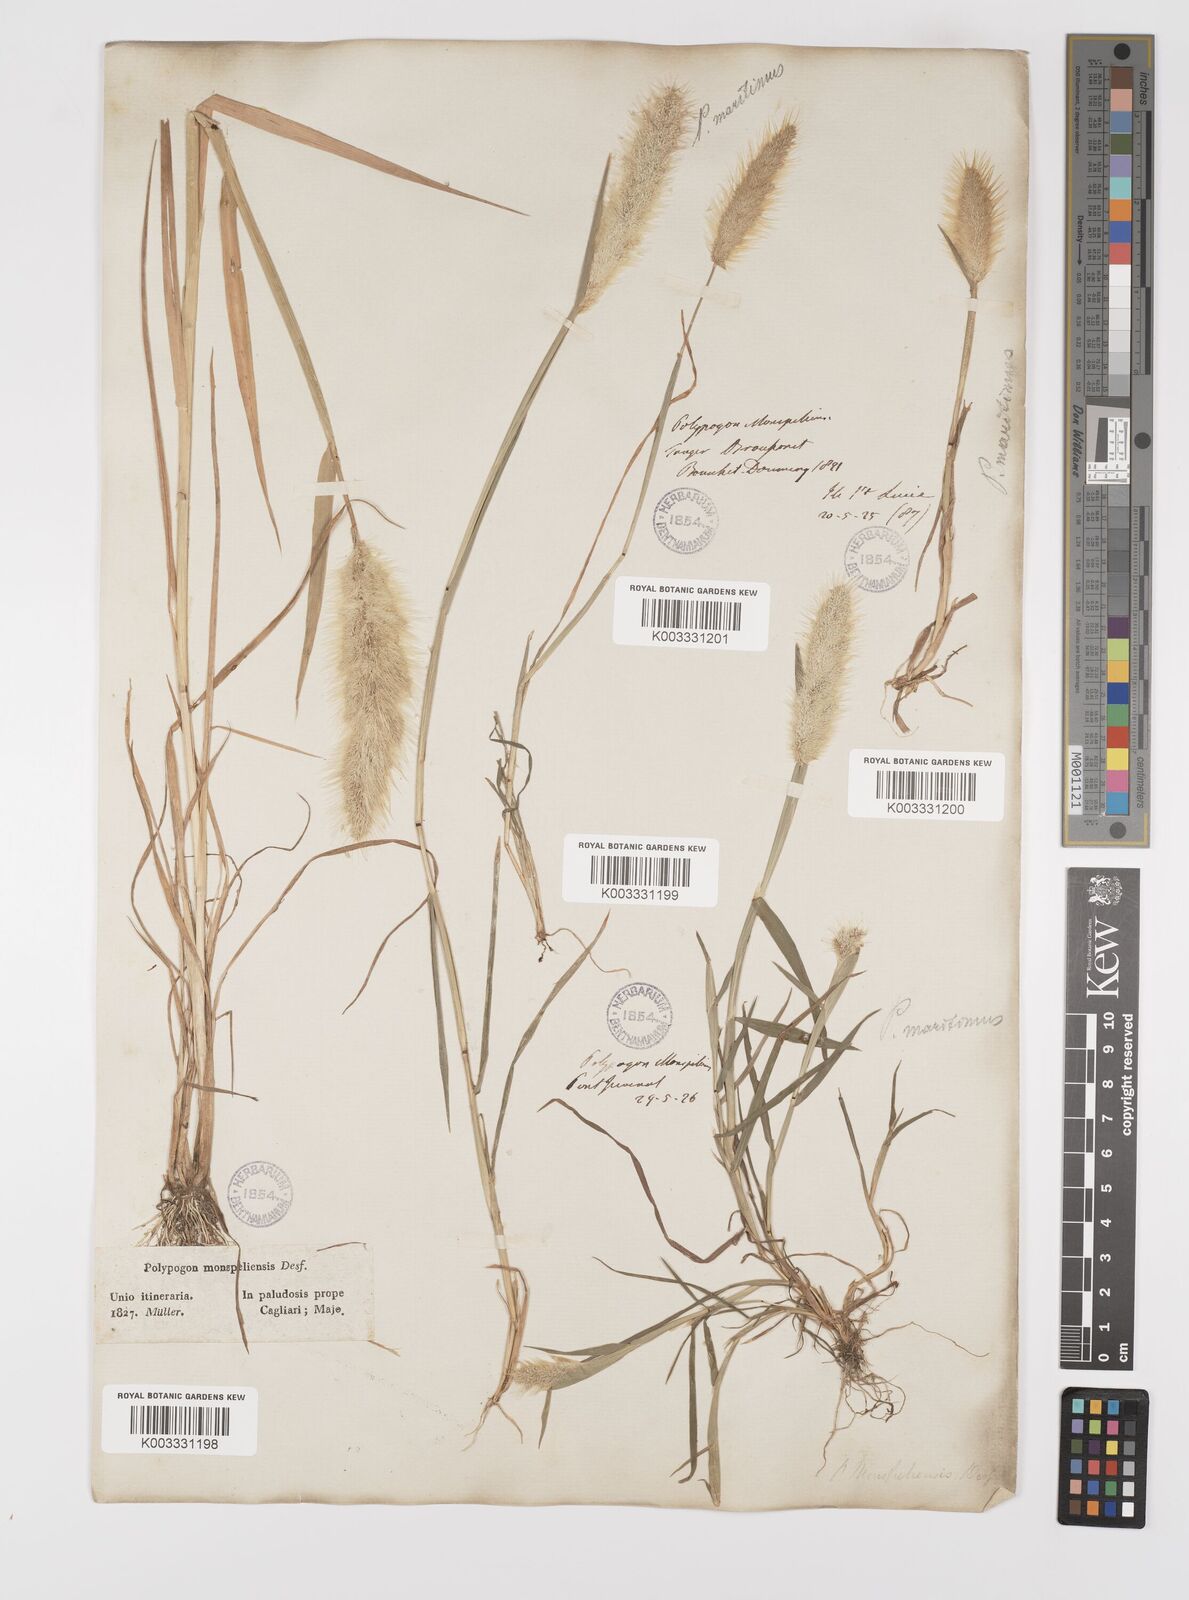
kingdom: Plantae
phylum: Tracheophyta
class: Liliopsida
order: Poales
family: Poaceae
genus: Polypogon
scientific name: Polypogon maritimus
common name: Mediterranean rabbitsfoot grass
